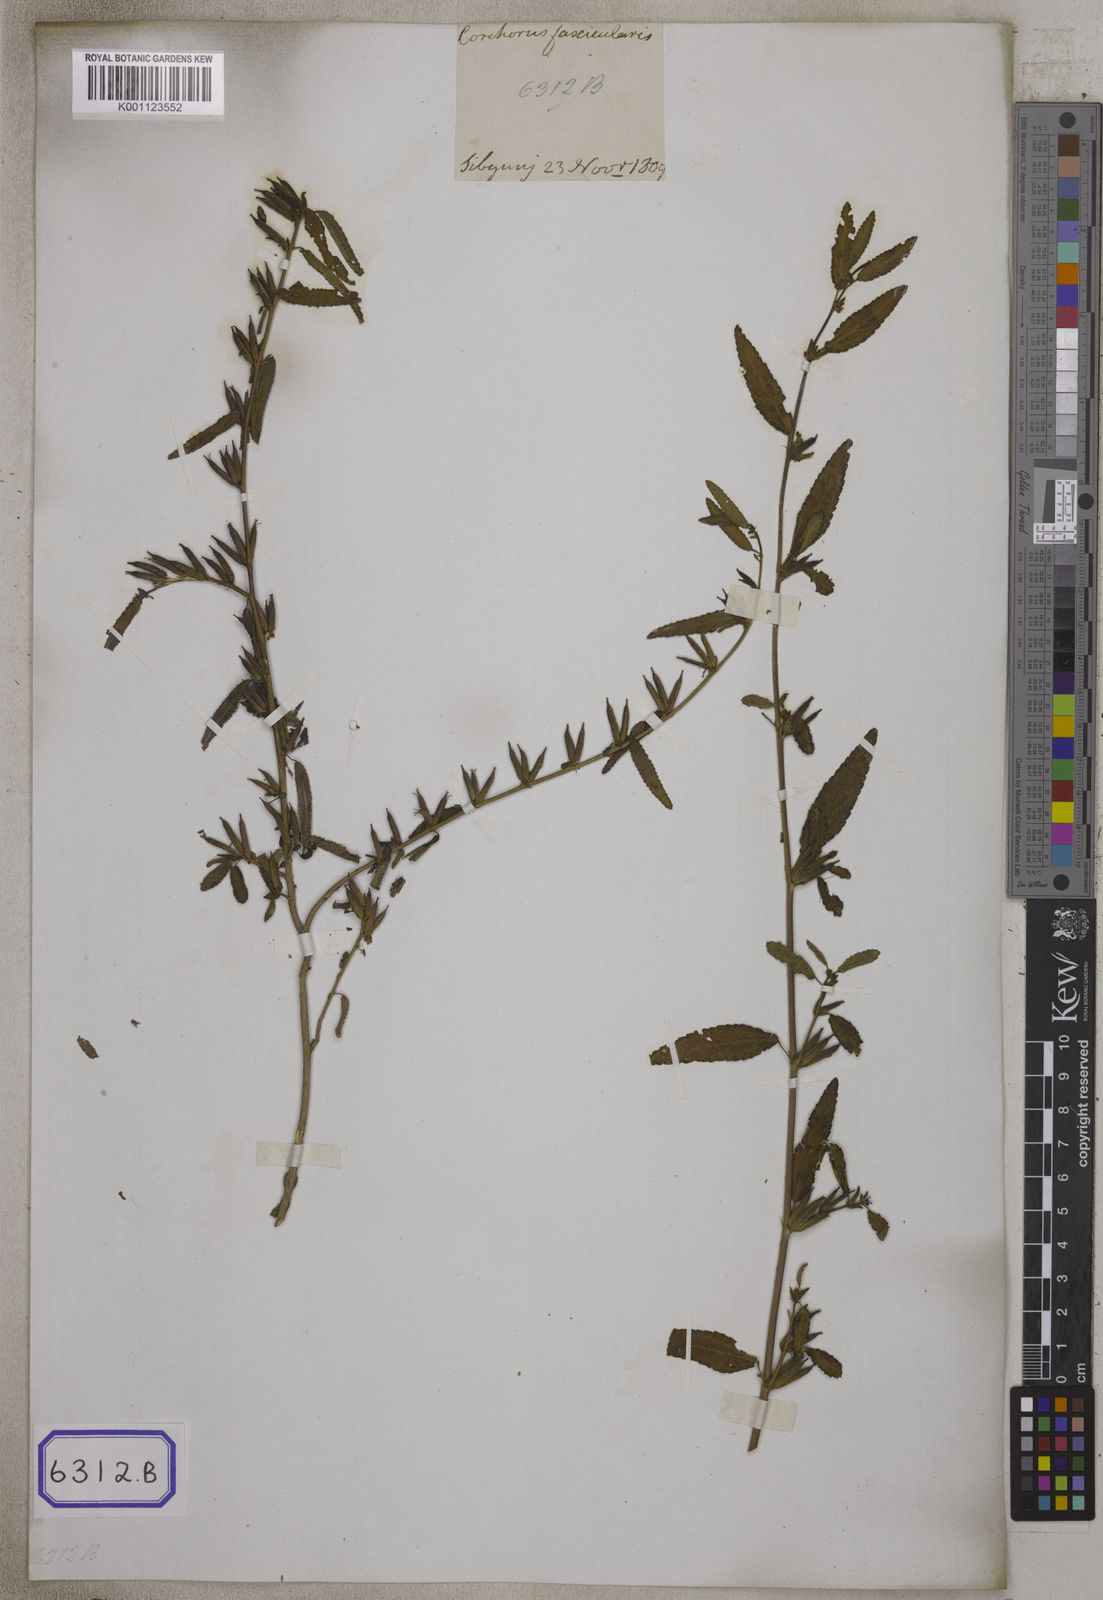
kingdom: Plantae
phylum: Tracheophyta
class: Magnoliopsida
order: Malvales
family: Malvaceae
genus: Corchorus
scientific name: Corchorus fascicularis
